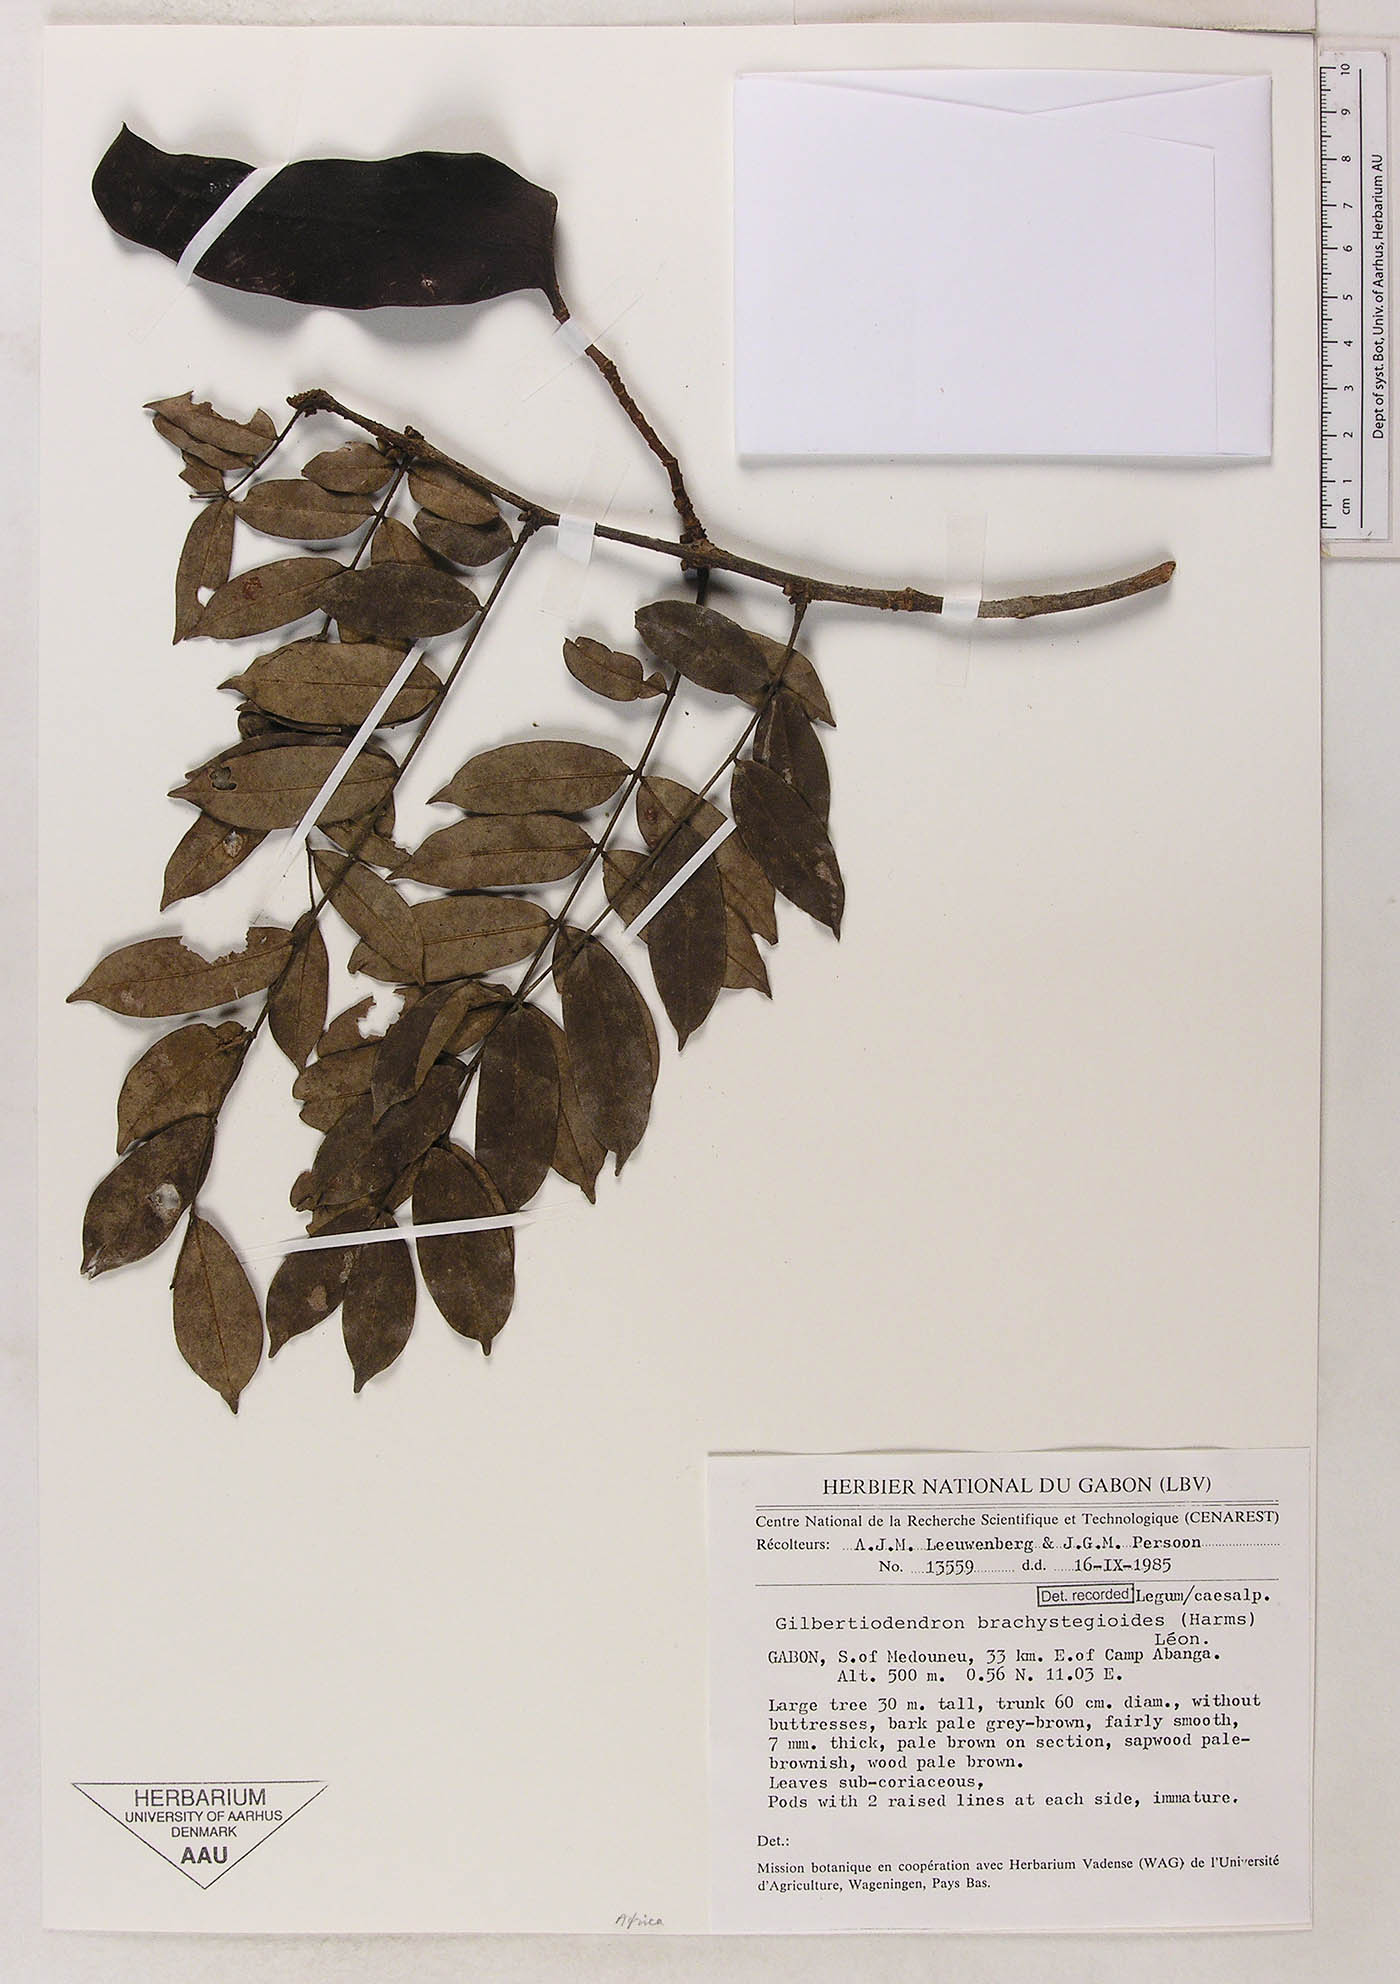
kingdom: Plantae
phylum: Tracheophyta
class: Magnoliopsida
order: Fabales
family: Fabaceae
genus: Gilbertiodendron
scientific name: Gilbertiodendron brachystegioides
